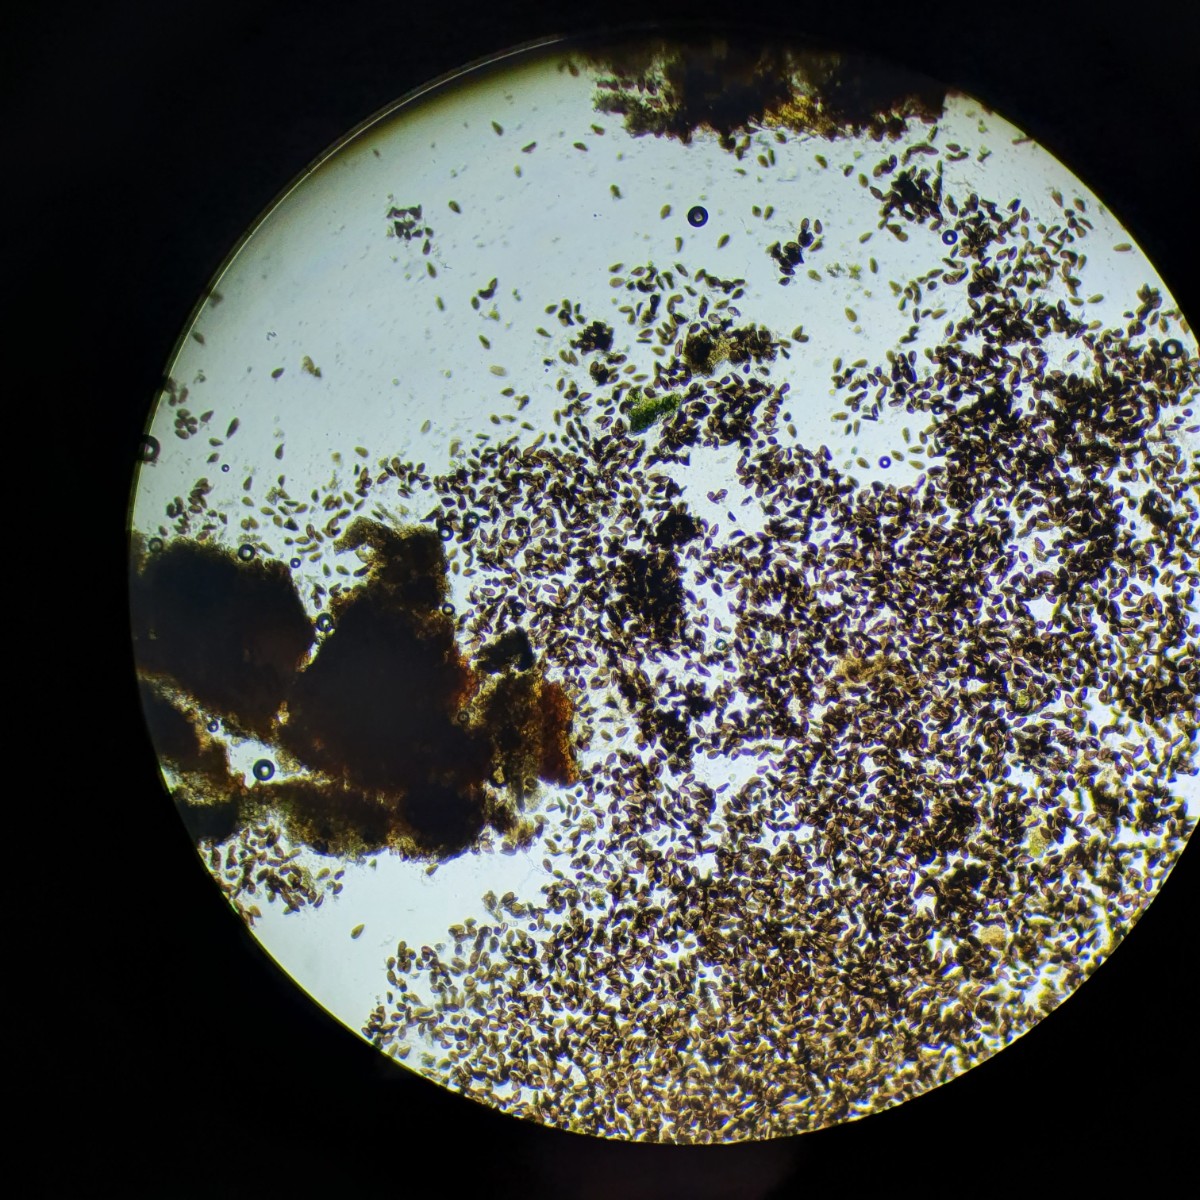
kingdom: Fungi
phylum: Ascomycota
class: Sordariomycetes
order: Diaporthales
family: Melanconidaceae
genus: Prosthecium
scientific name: Prosthecium pyriforme
